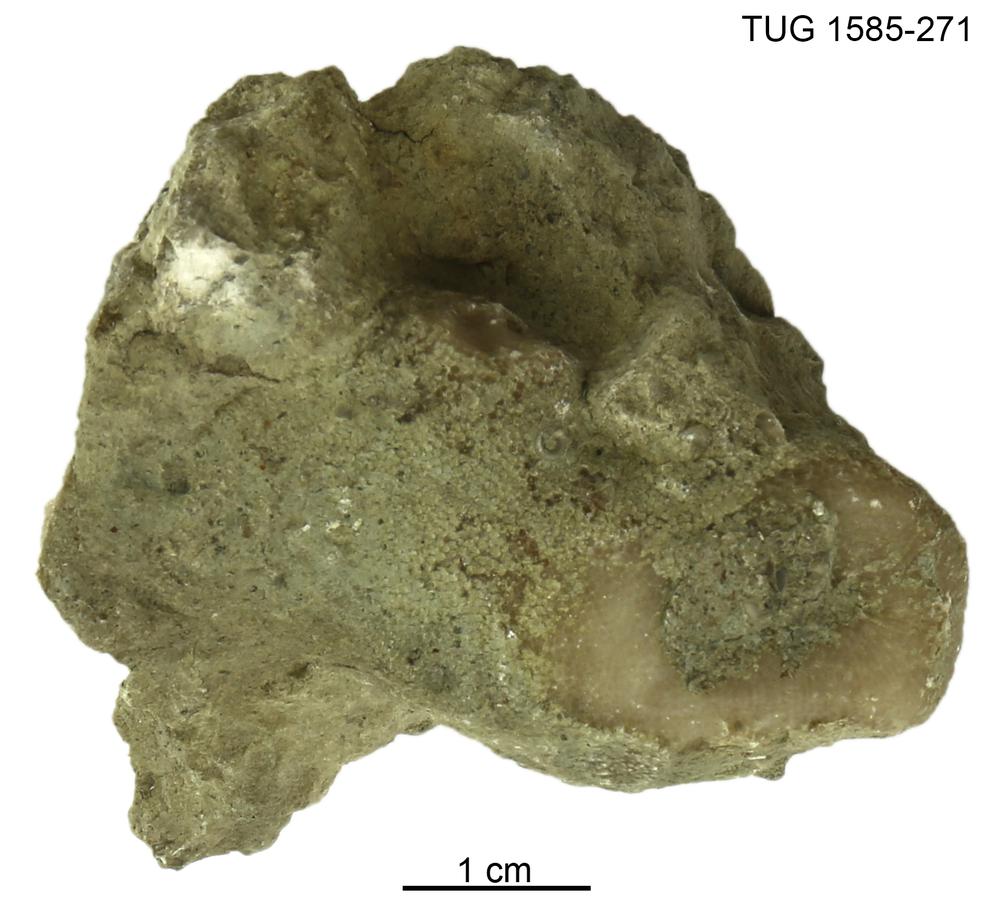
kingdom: Animalia
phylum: Bryozoa
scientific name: Bryozoa
